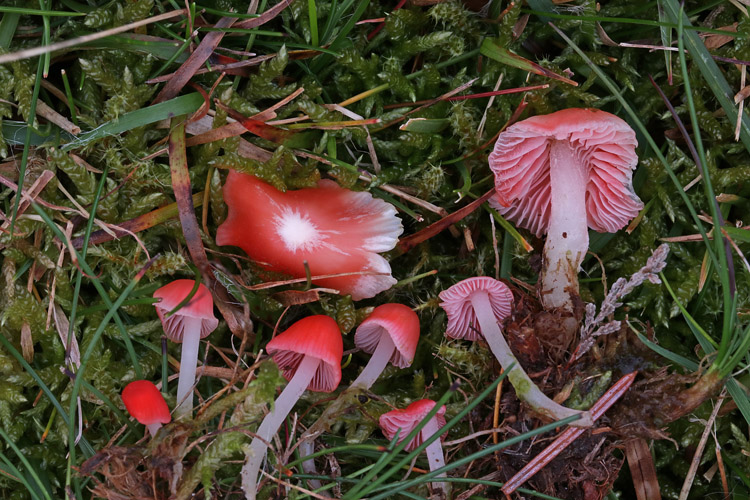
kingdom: Fungi
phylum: Basidiomycota
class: Agaricomycetes
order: Agaricales
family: Mycenaceae
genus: Atheniella
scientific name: Atheniella adonis
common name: rønnerød huesvamp
